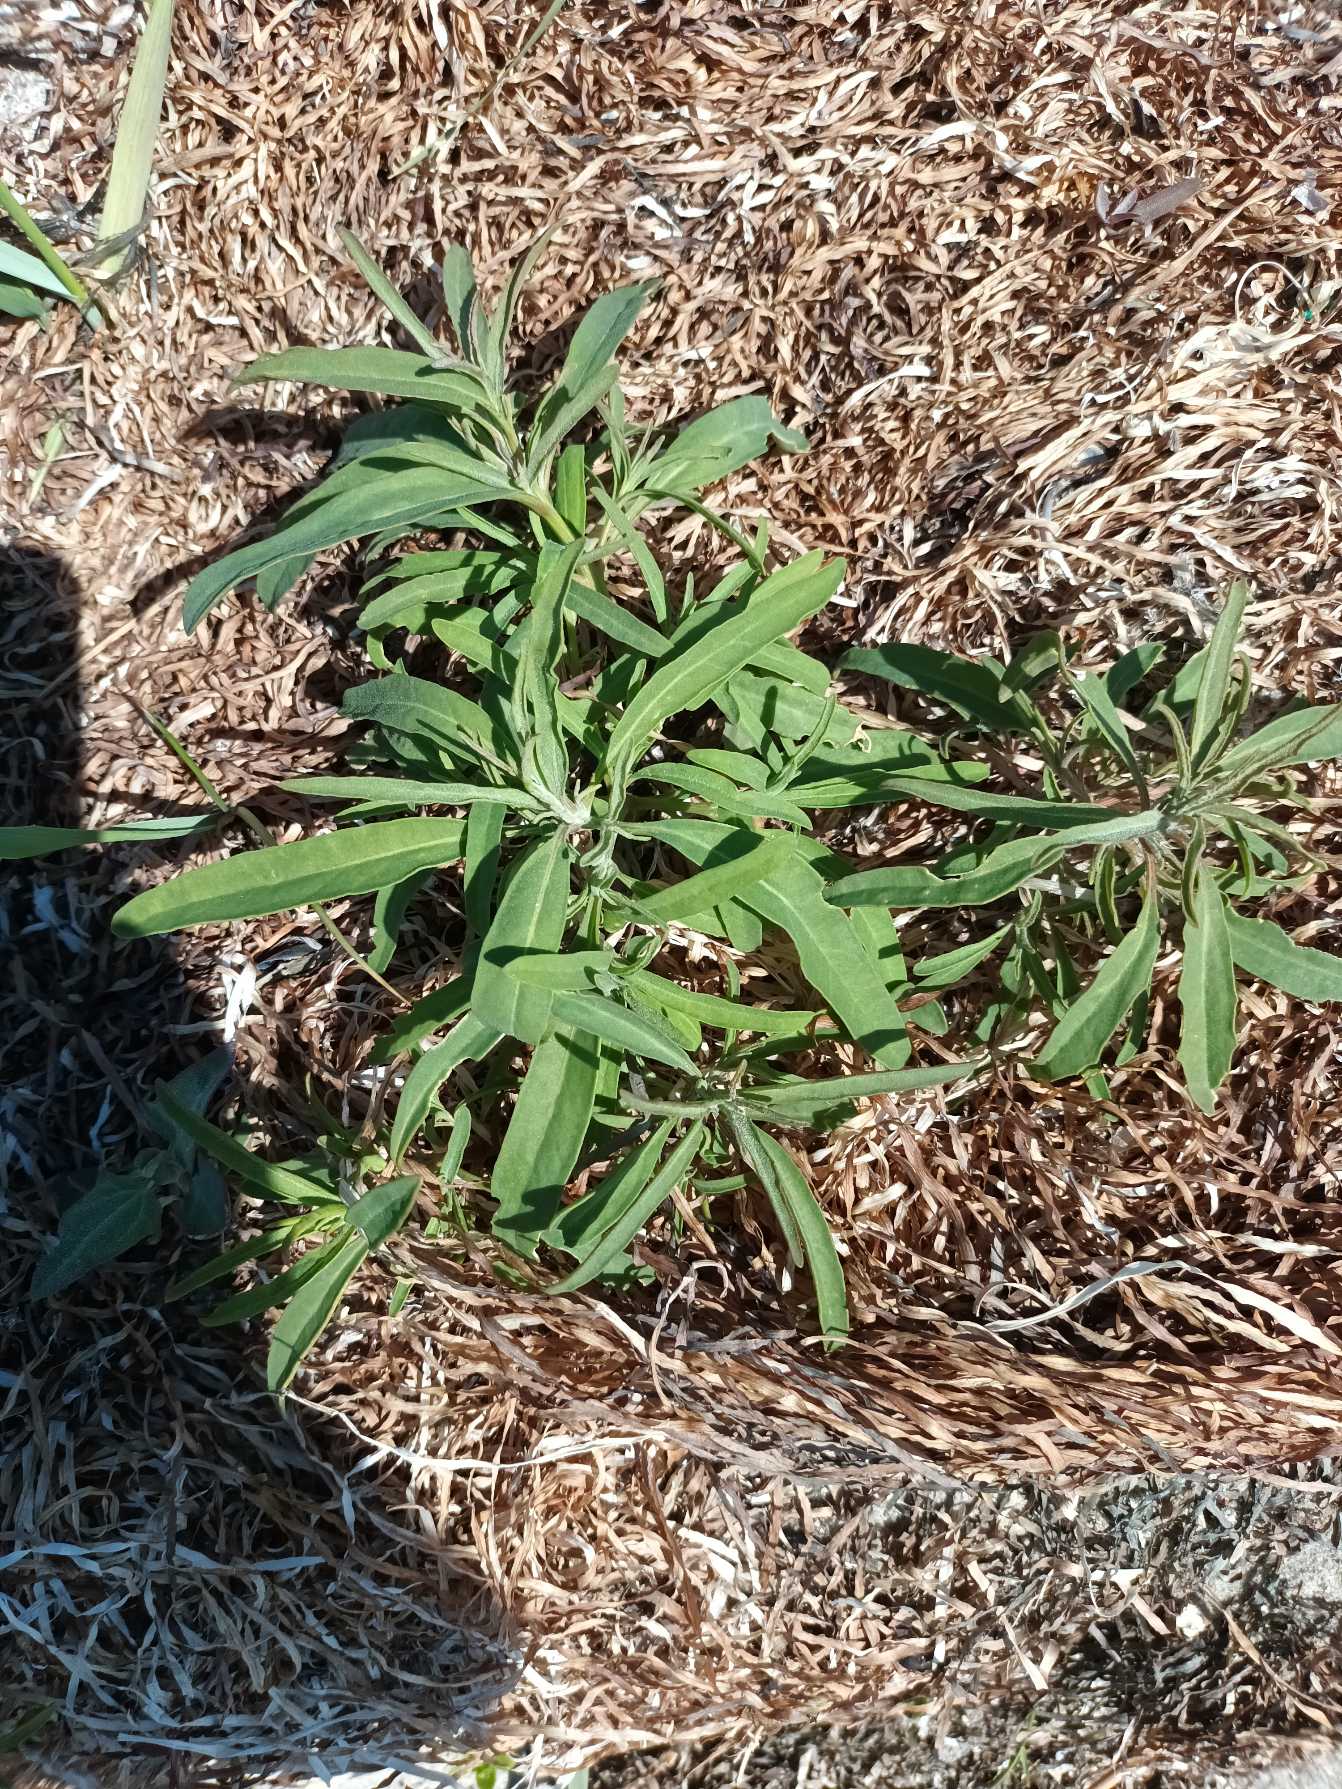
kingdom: Plantae
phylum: Tracheophyta
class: Magnoliopsida
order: Caryophyllales
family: Amaranthaceae
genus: Atriplex
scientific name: Atriplex littoralis
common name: Strand-mælde
